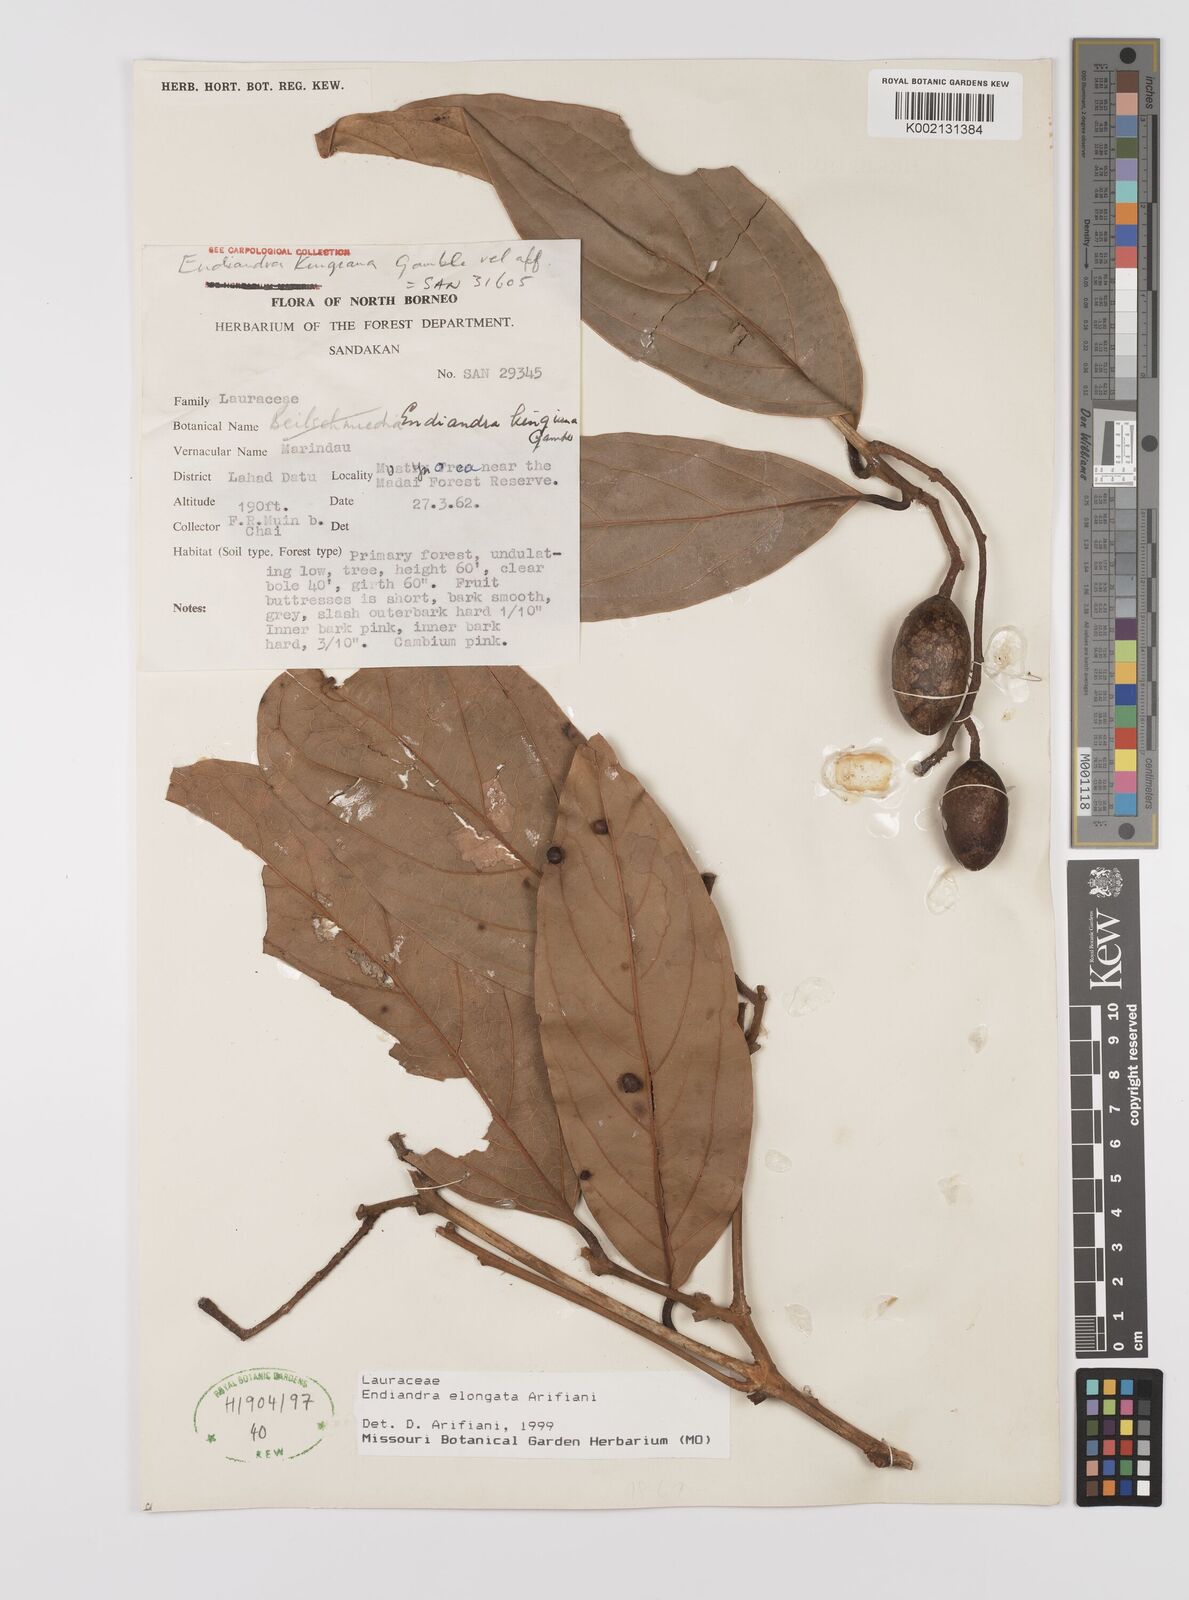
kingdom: Plantae
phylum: Tracheophyta
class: Magnoliopsida
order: Laurales
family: Lauraceae
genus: Endiandra
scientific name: Endiandra elongata
